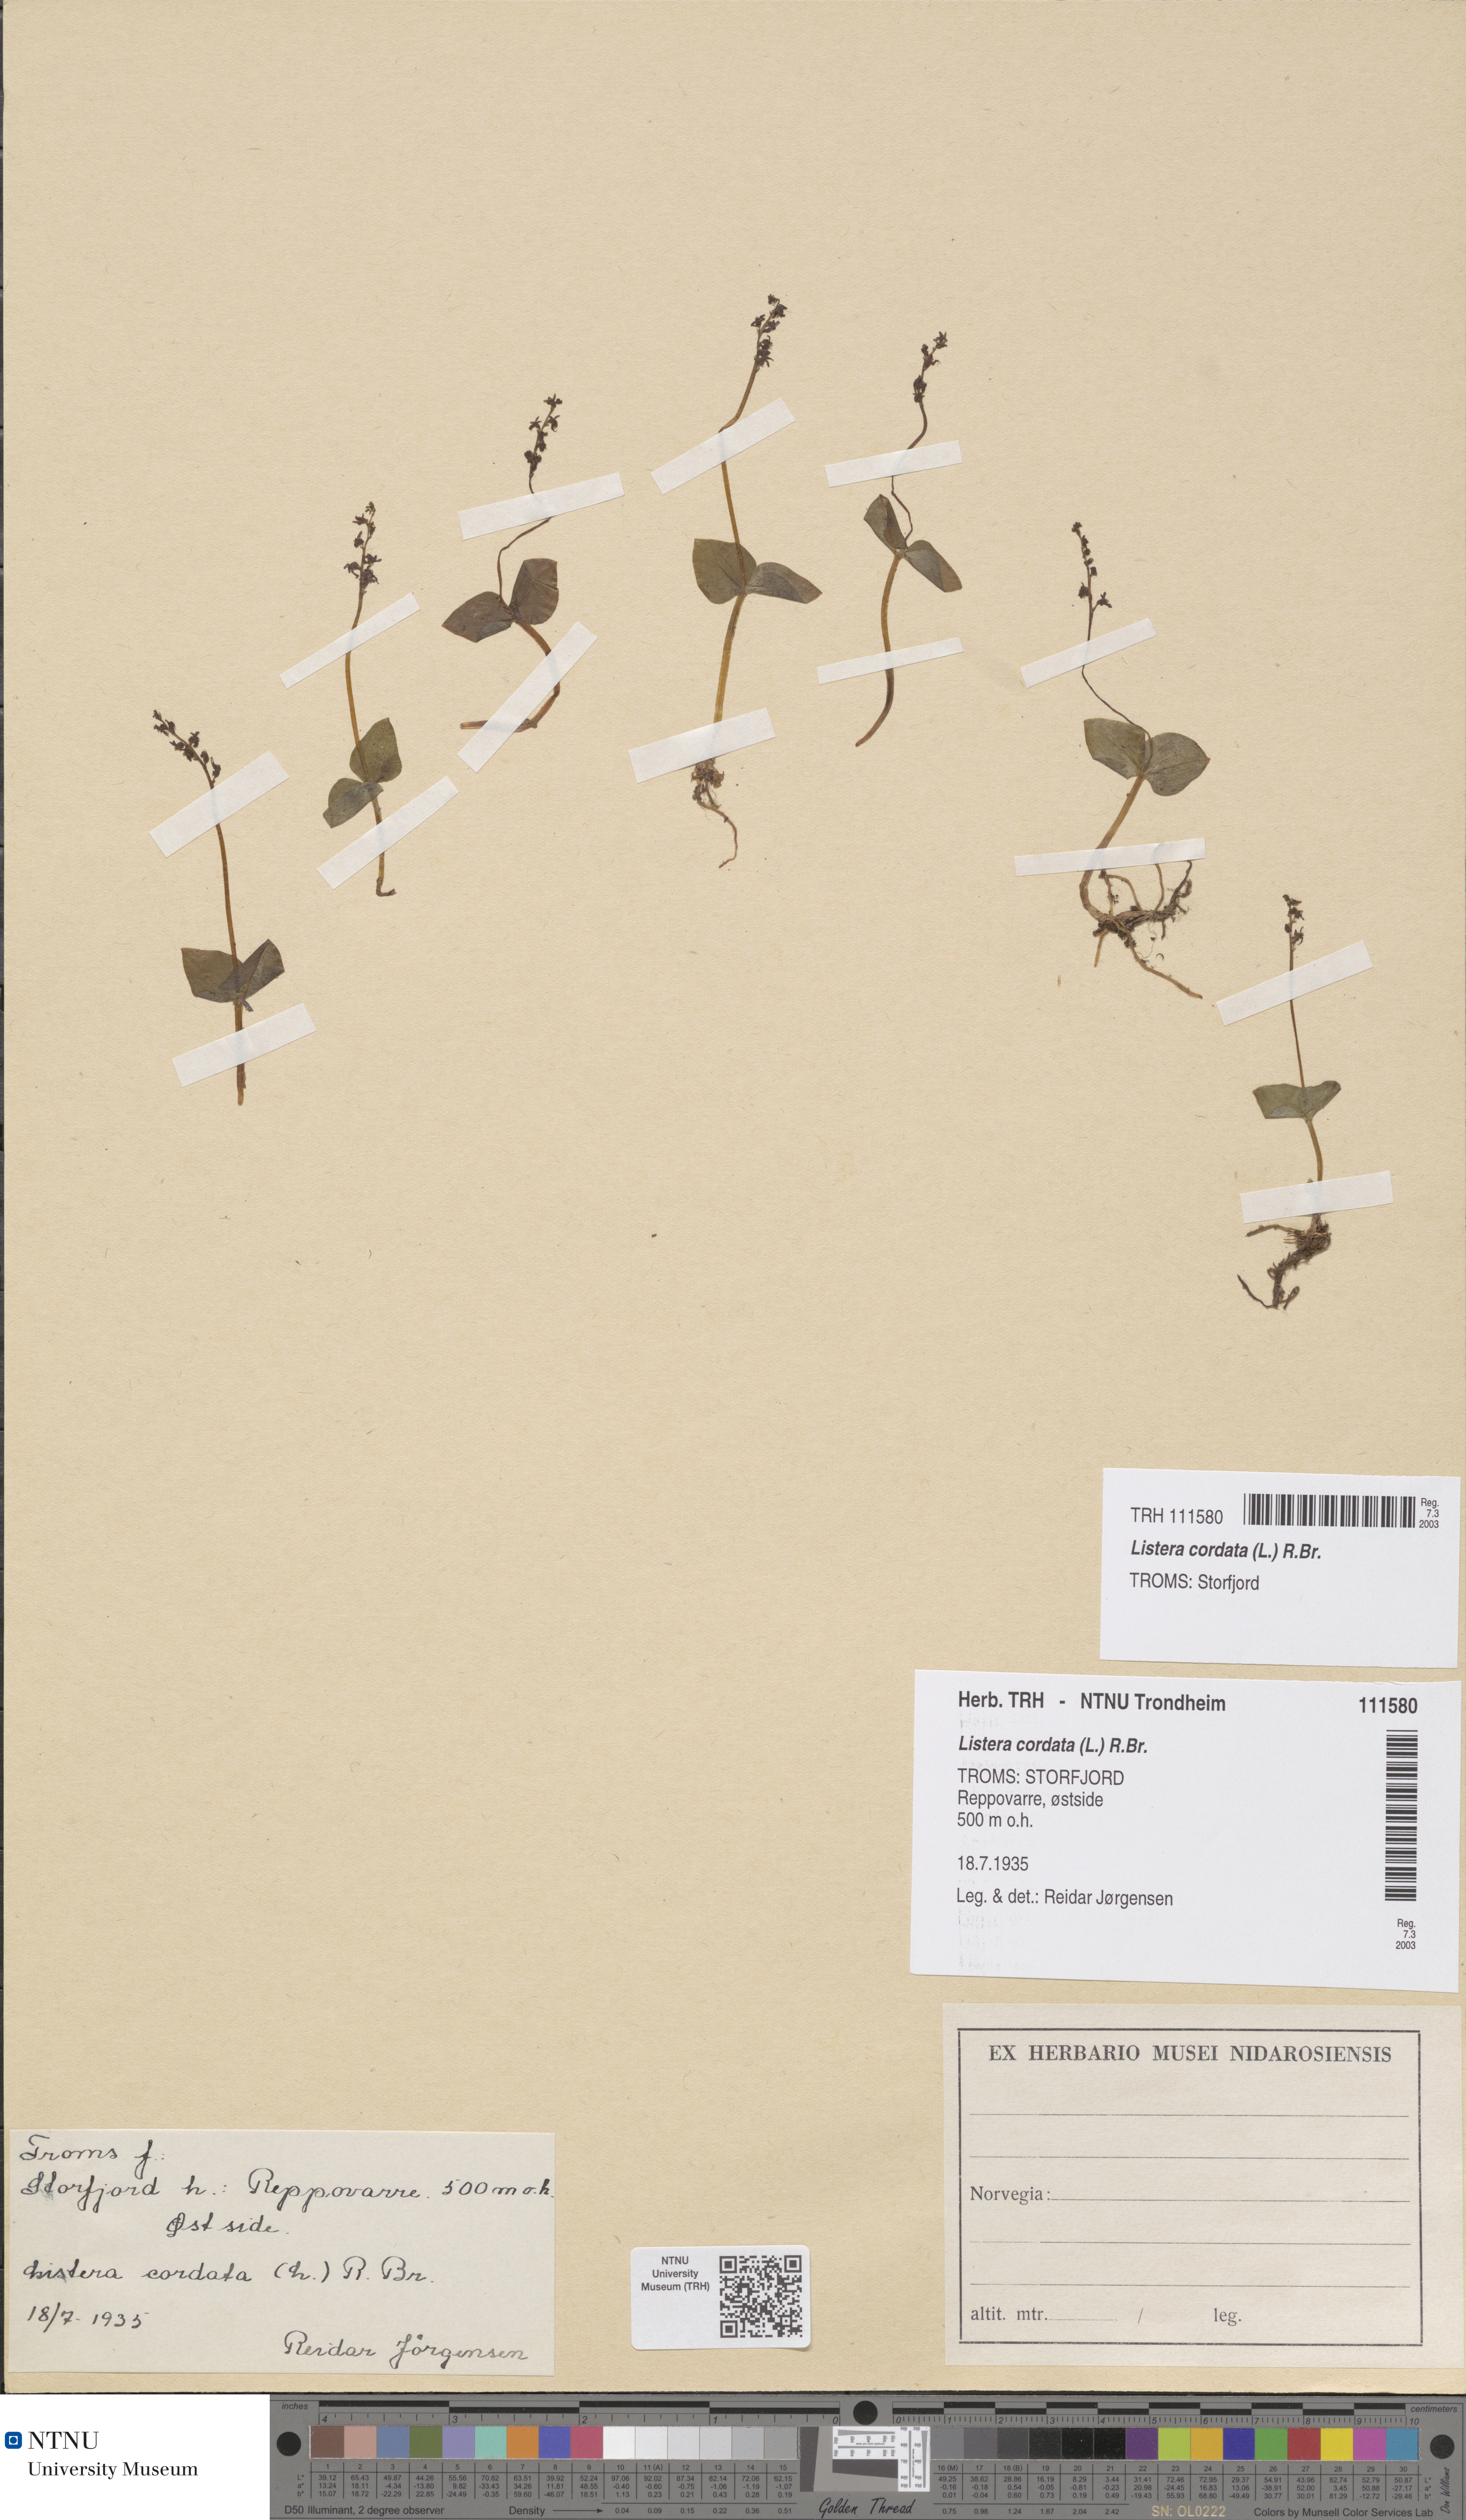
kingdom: Plantae
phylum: Tracheophyta
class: Liliopsida
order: Asparagales
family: Orchidaceae
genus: Neottia
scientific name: Neottia cordata
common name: Lesser twayblade
